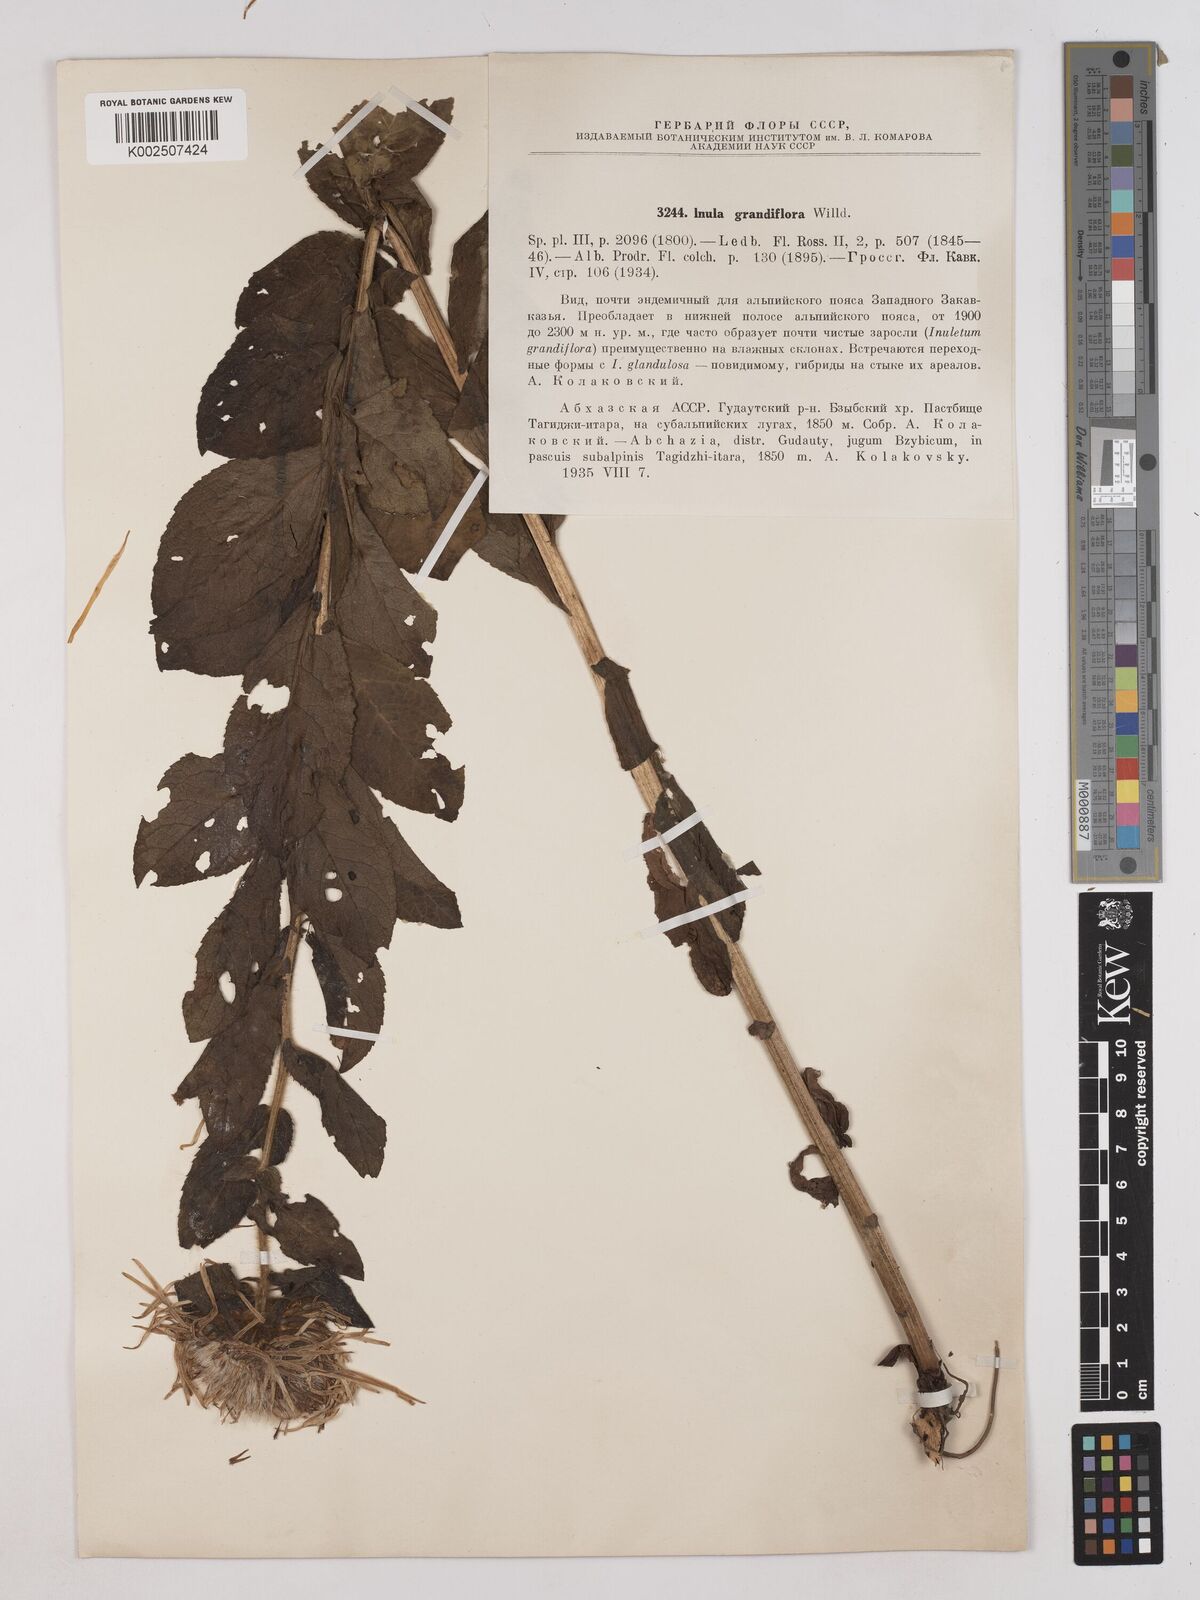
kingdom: Plantae
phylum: Tracheophyta
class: Magnoliopsida
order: Asterales
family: Asteraceae
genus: Pentanema
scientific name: Pentanema orientale
